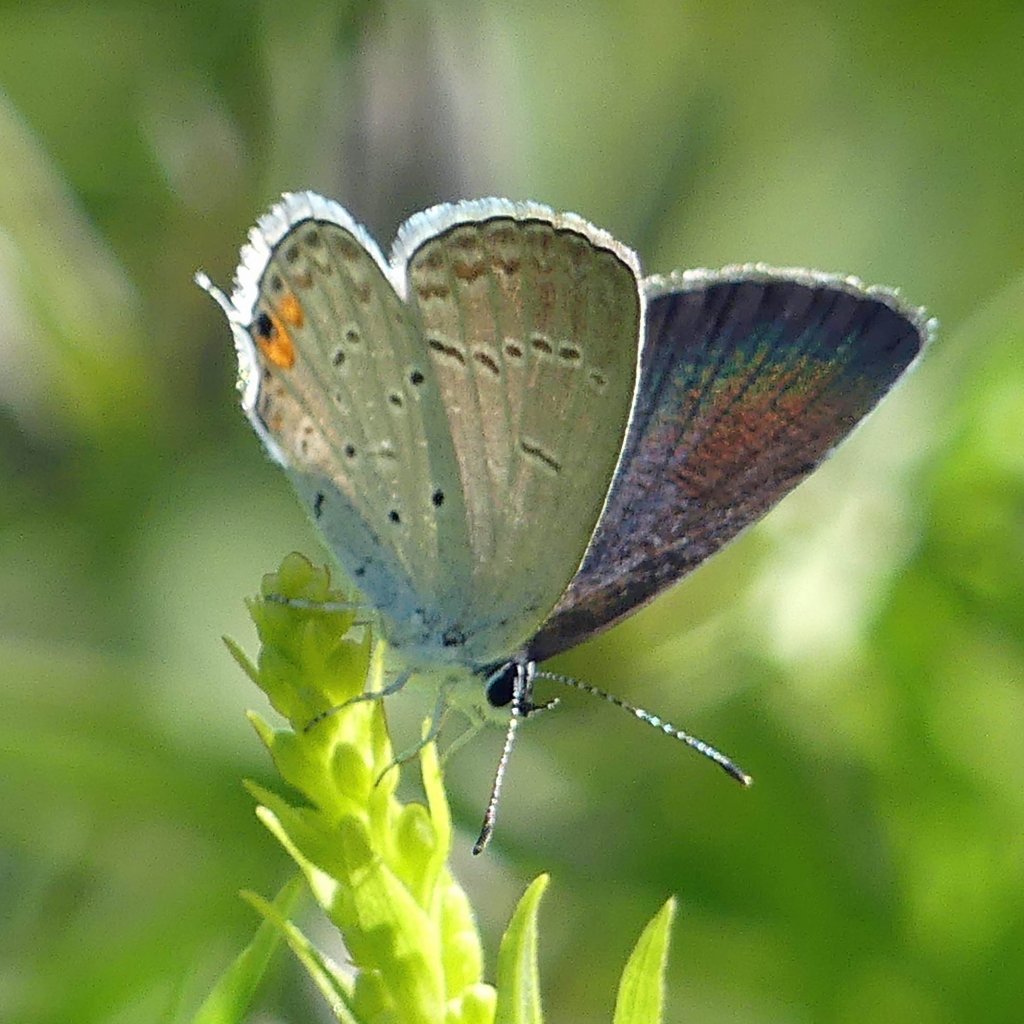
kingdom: Animalia
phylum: Arthropoda
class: Insecta
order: Lepidoptera
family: Lycaenidae
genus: Elkalyce
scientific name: Elkalyce comyntas
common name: Eastern Tailed-Blue
